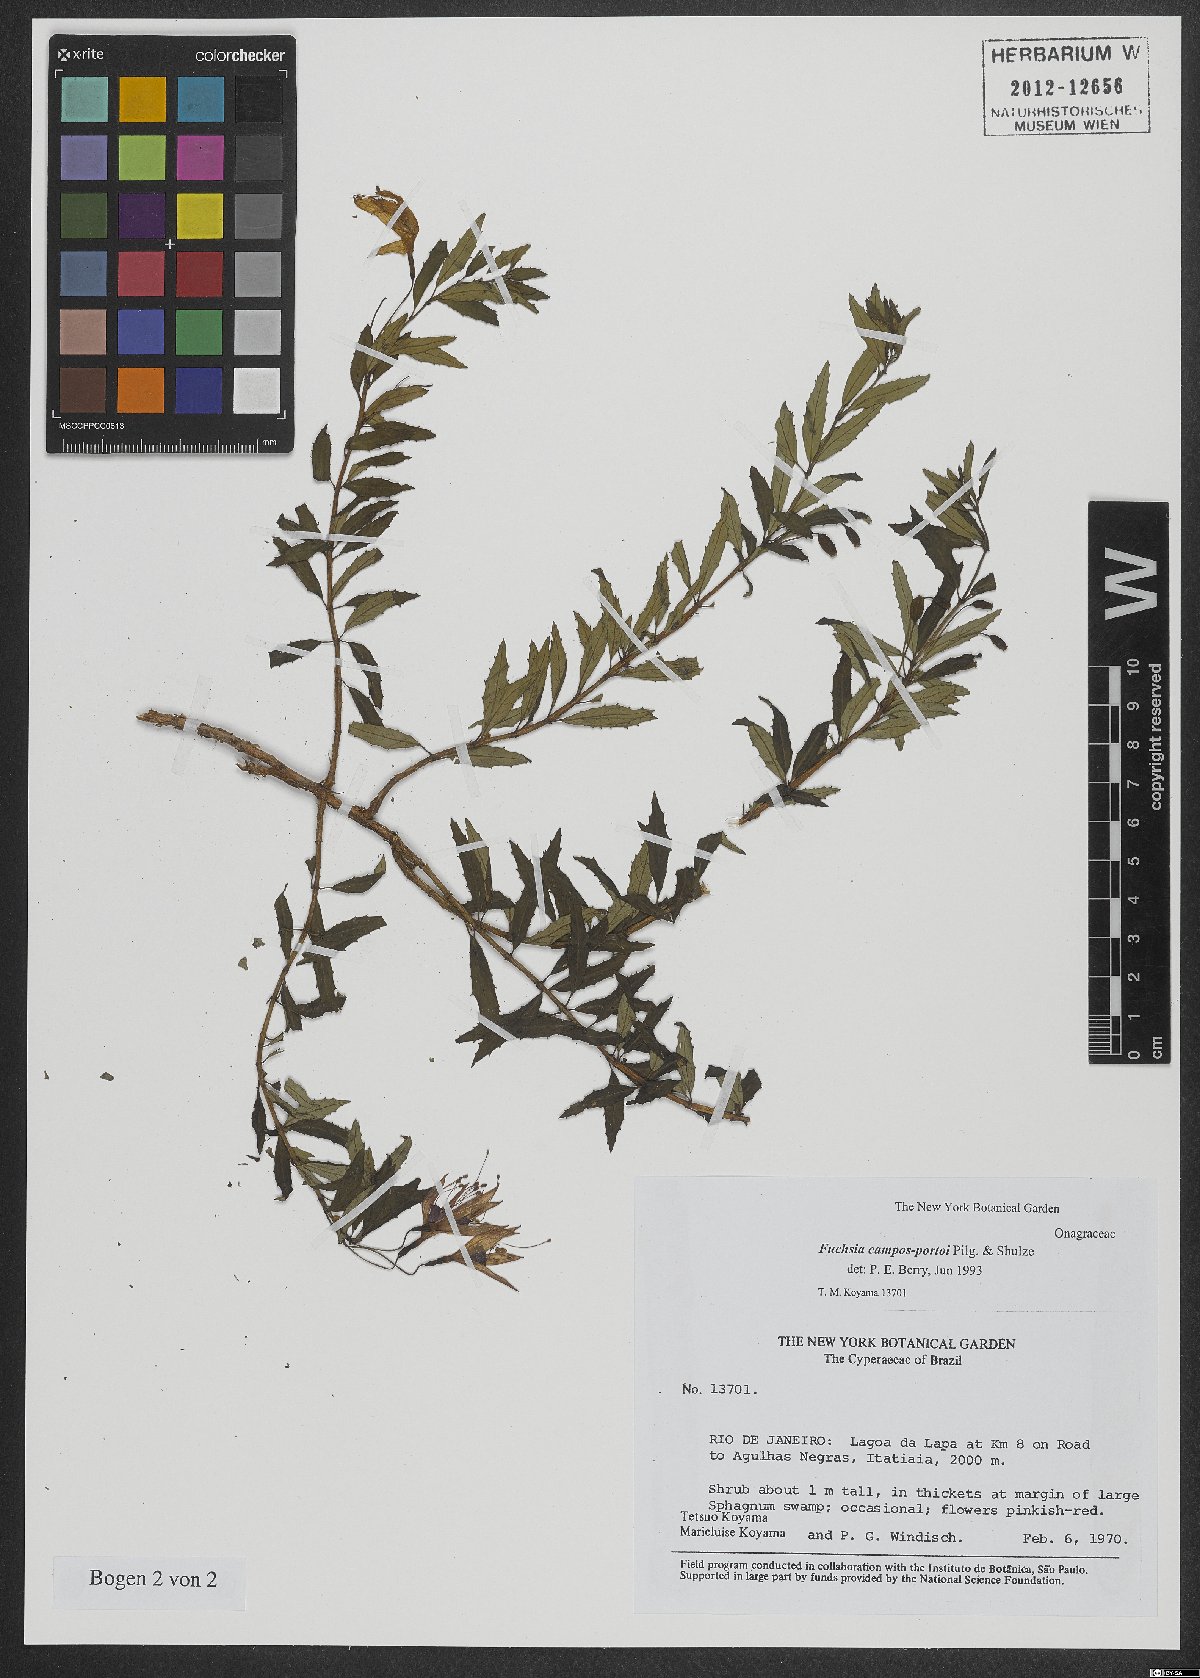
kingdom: Plantae
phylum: Tracheophyta
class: Magnoliopsida
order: Myrtales
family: Onagraceae
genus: Fuchsia
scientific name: Fuchsia campos-portoi
